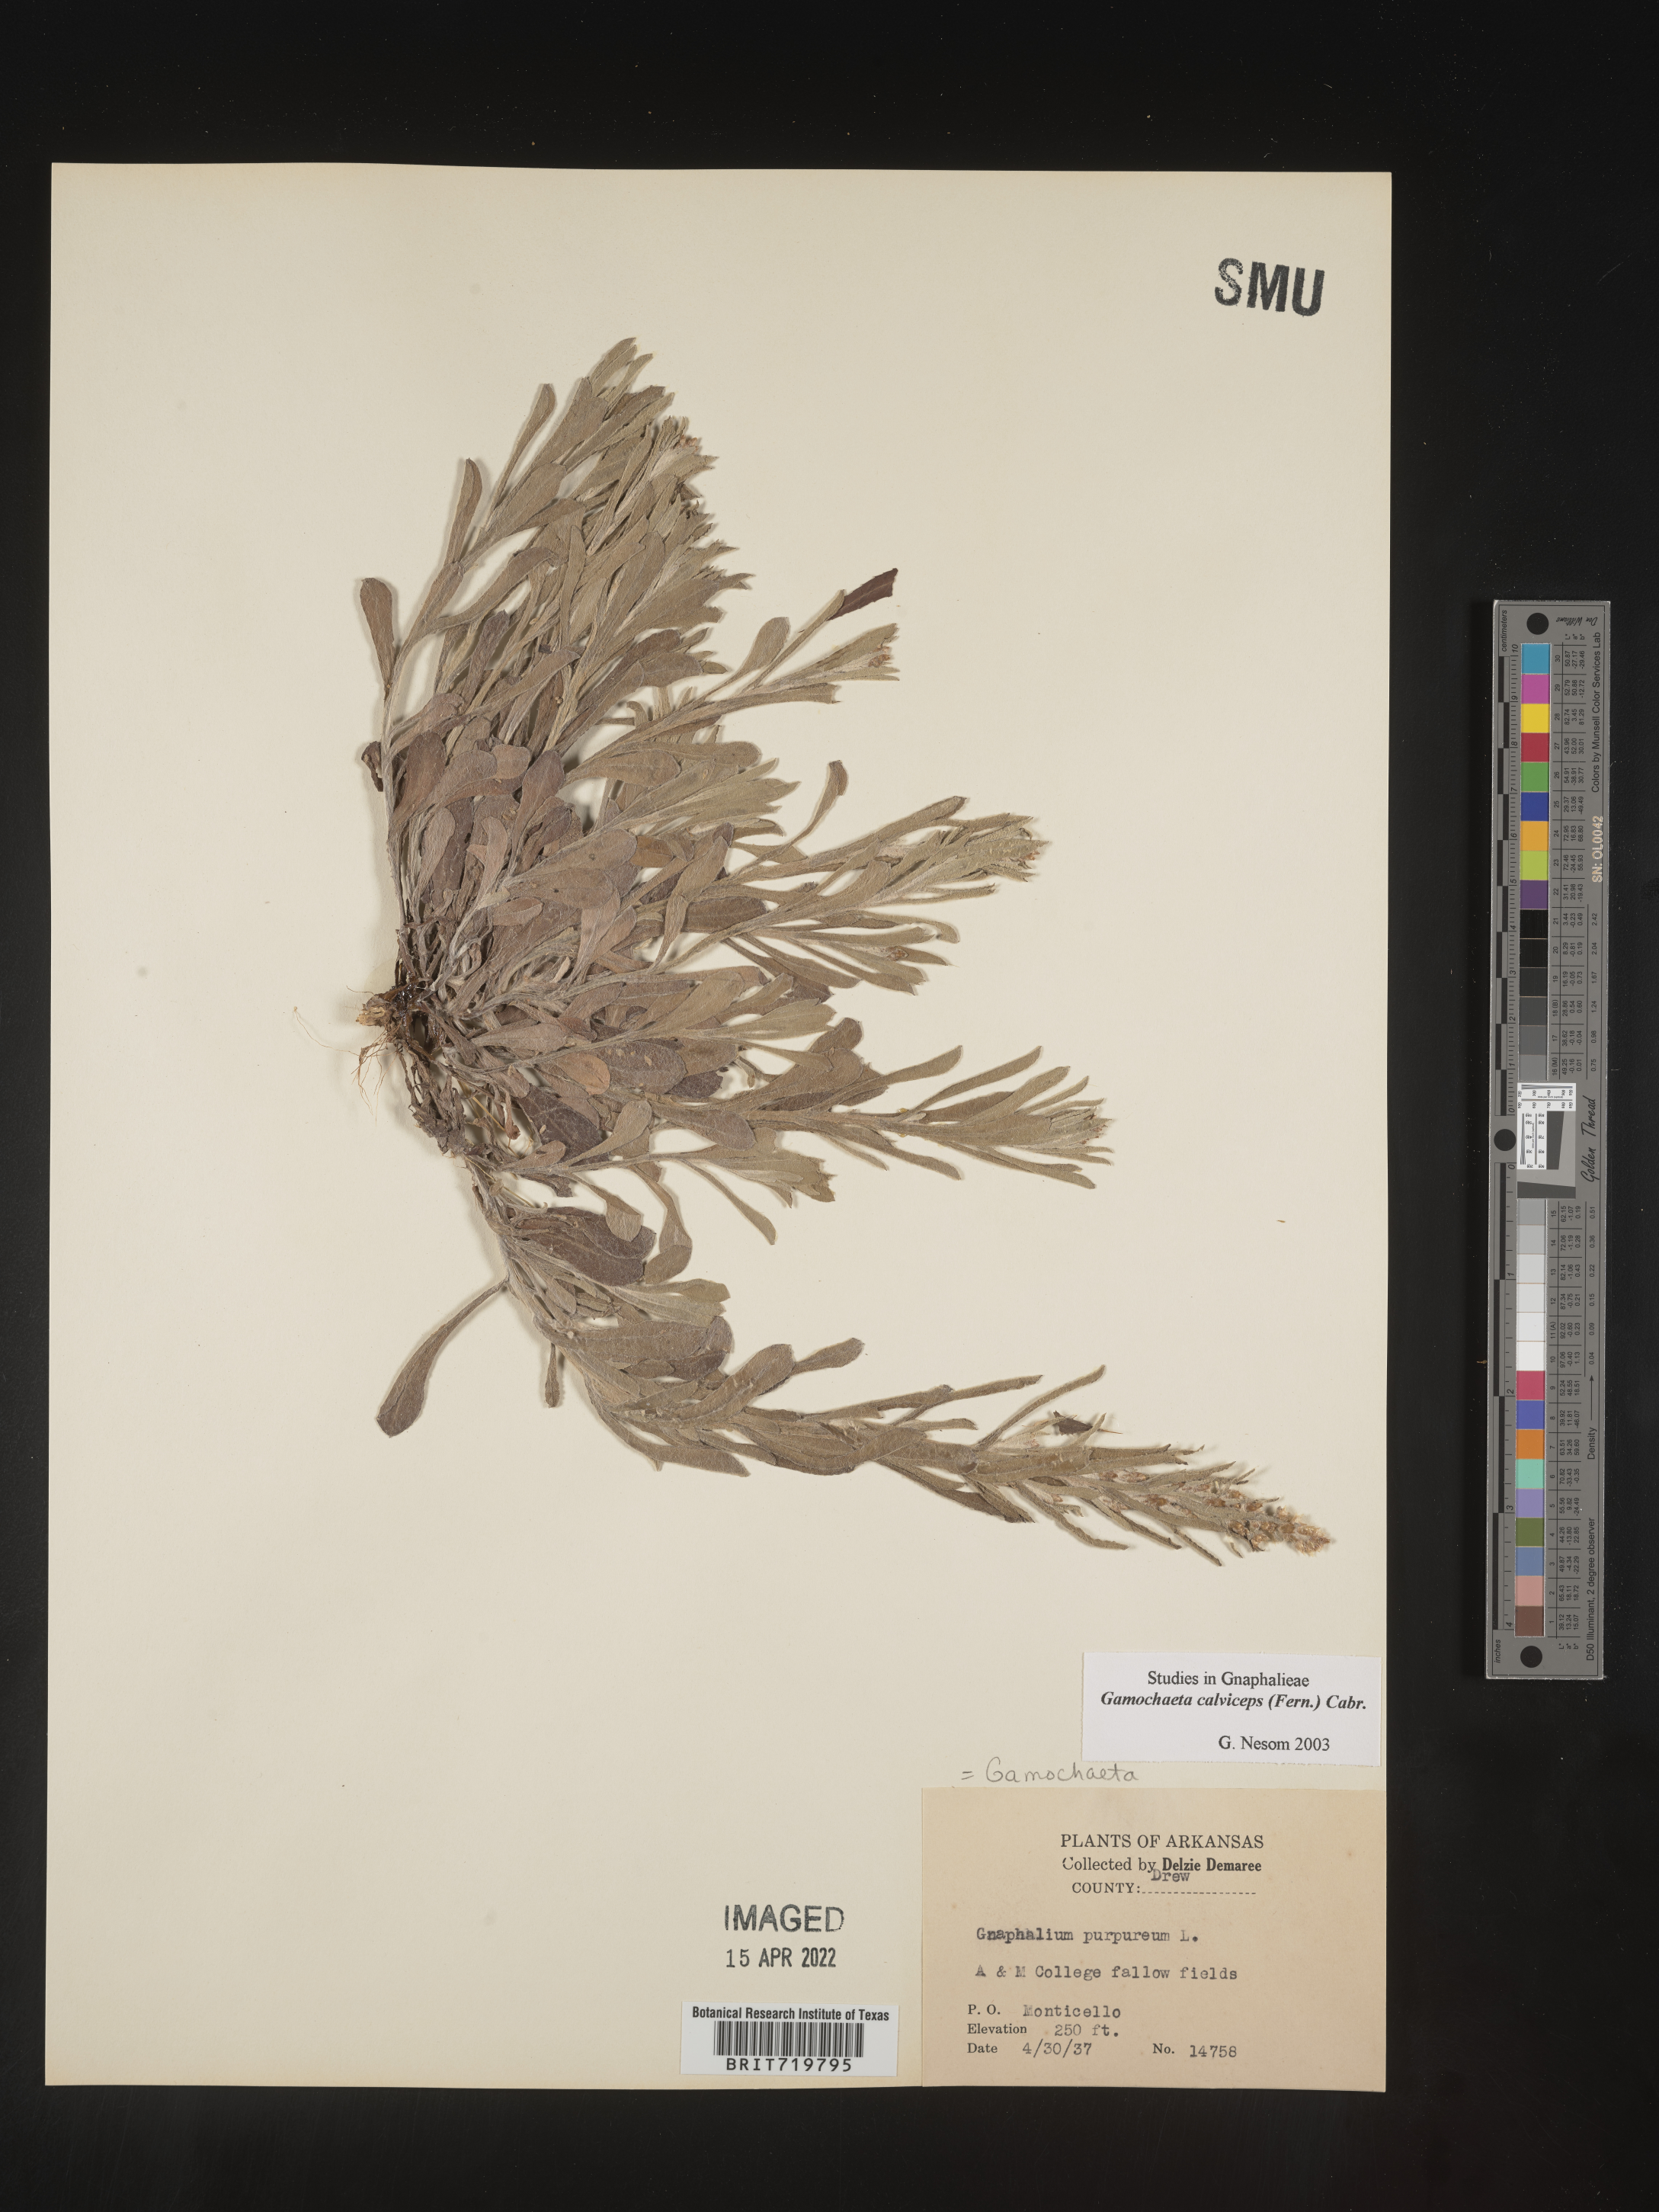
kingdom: Plantae
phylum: Tracheophyta
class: Magnoliopsida
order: Asterales
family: Asteraceae
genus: Gamochaeta
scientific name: Gamochaeta calviceps
